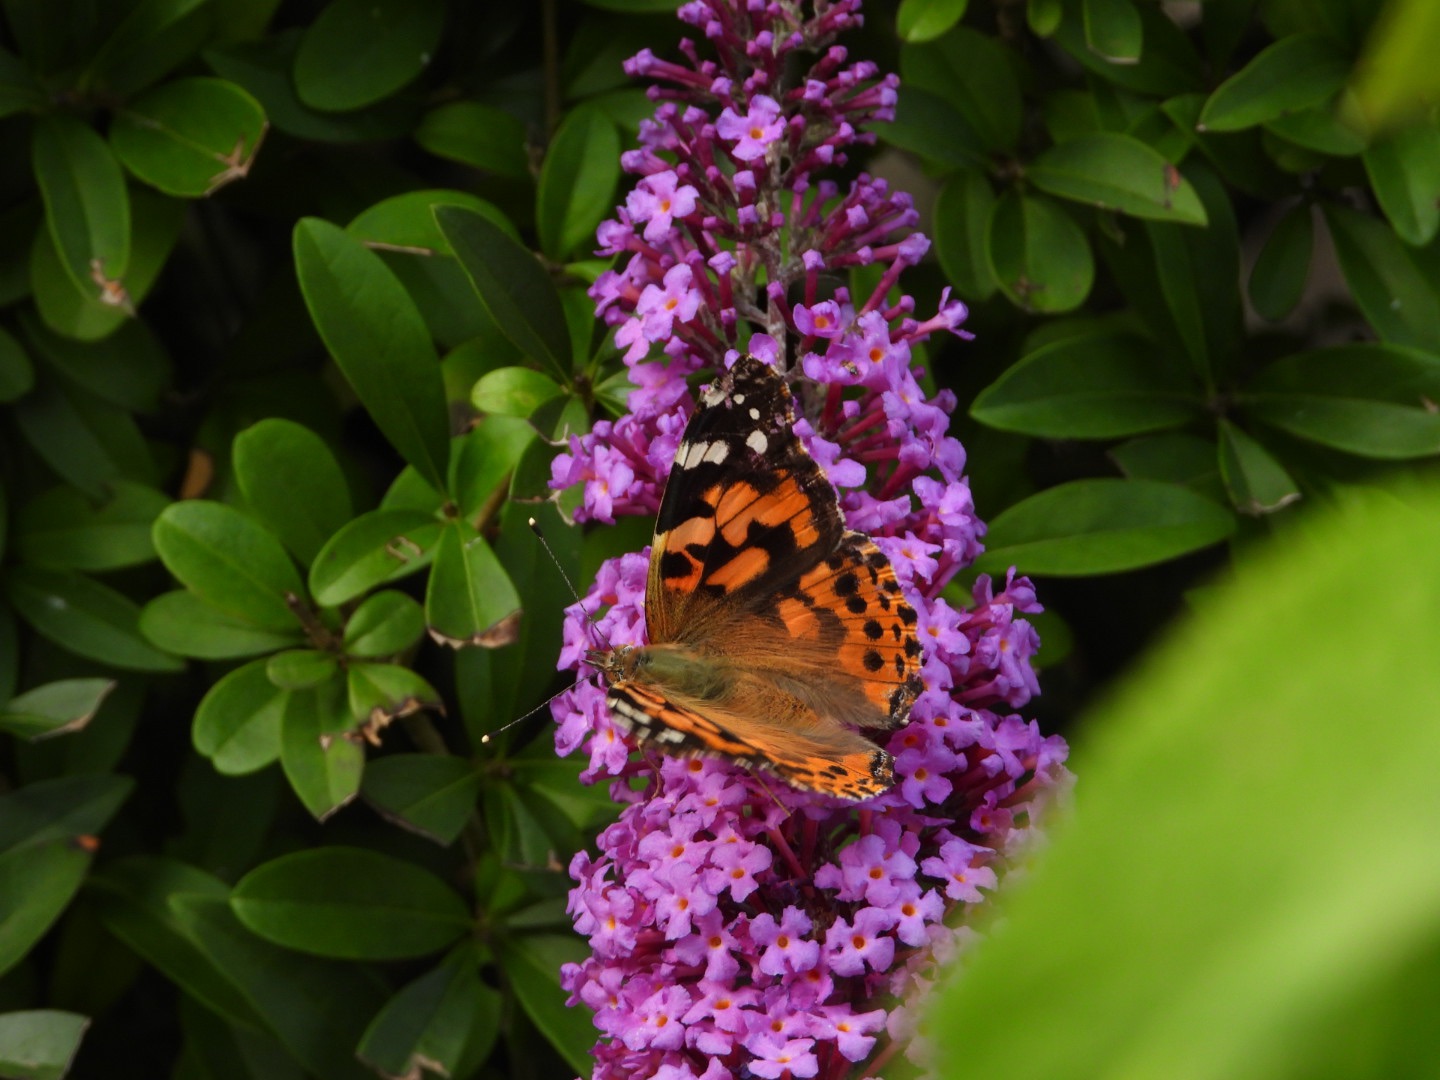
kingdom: Animalia
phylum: Arthropoda
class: Insecta
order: Lepidoptera
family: Nymphalidae
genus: Vanessa
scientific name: Vanessa cardui
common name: Tidselsommerfugl
